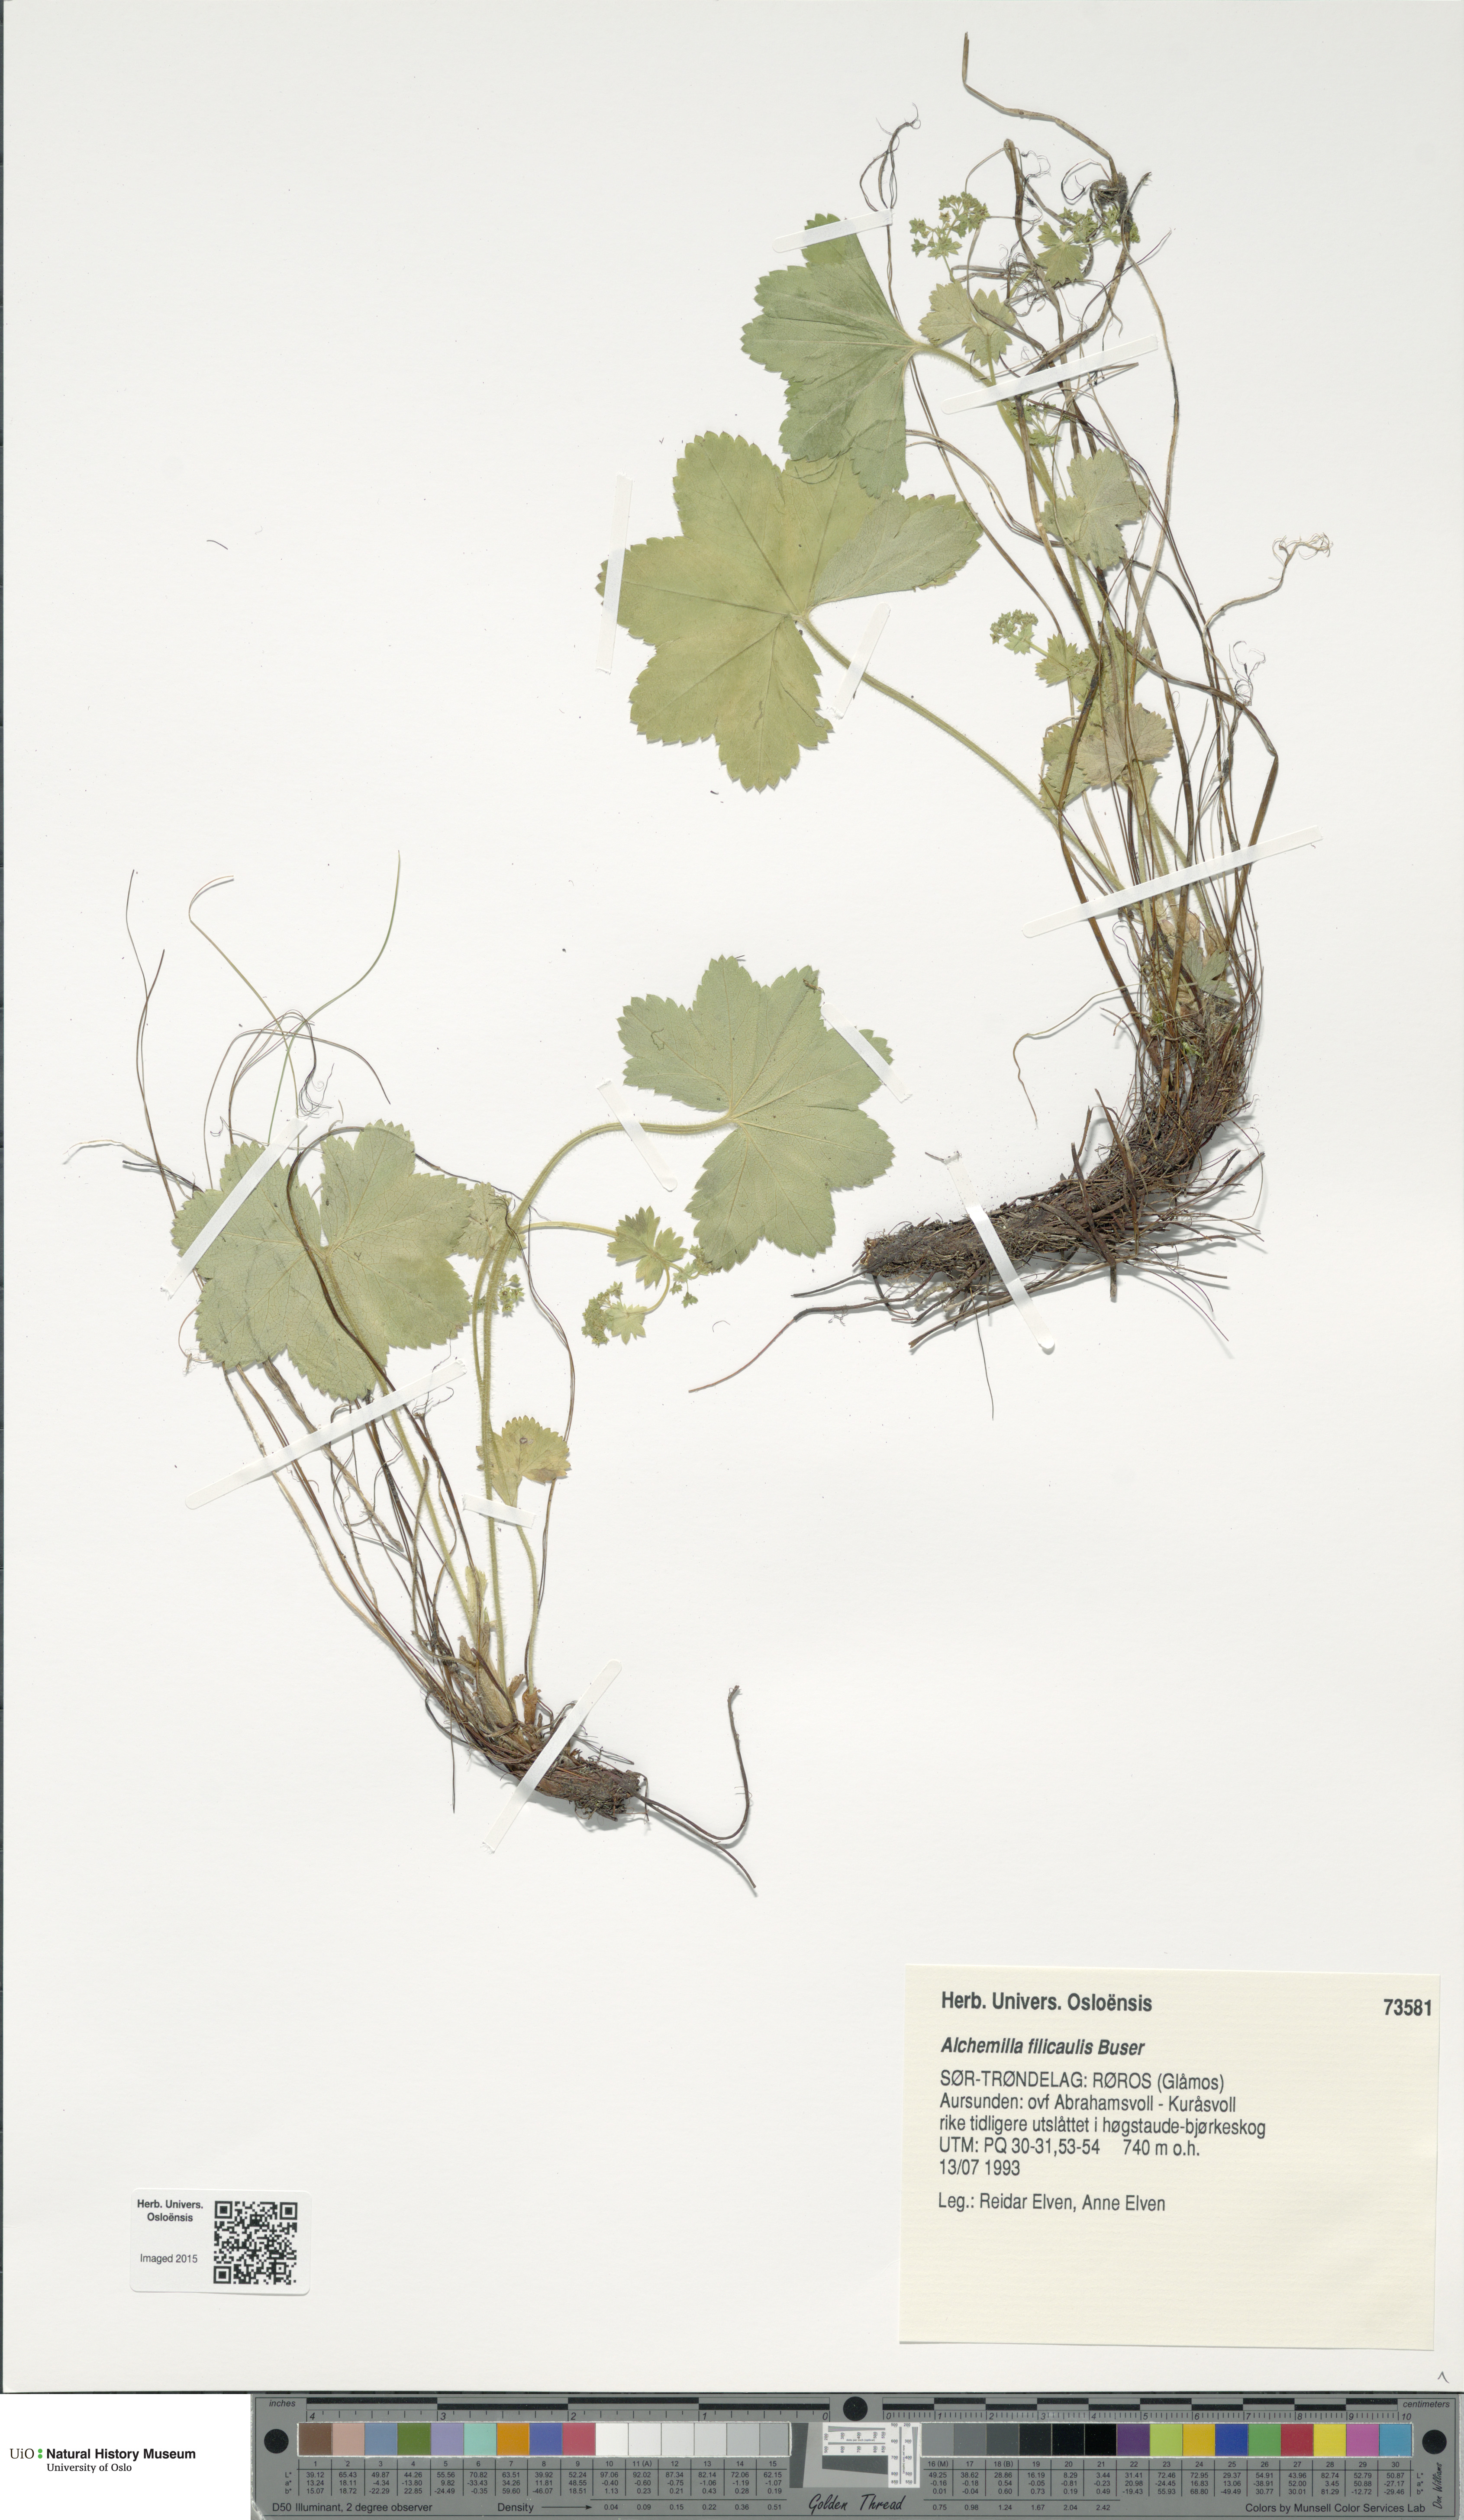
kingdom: Plantae
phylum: Tracheophyta
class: Magnoliopsida
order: Rosales
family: Rosaceae
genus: Alchemilla
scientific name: Alchemilla filicaulis
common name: Hairy lady's-mantle
